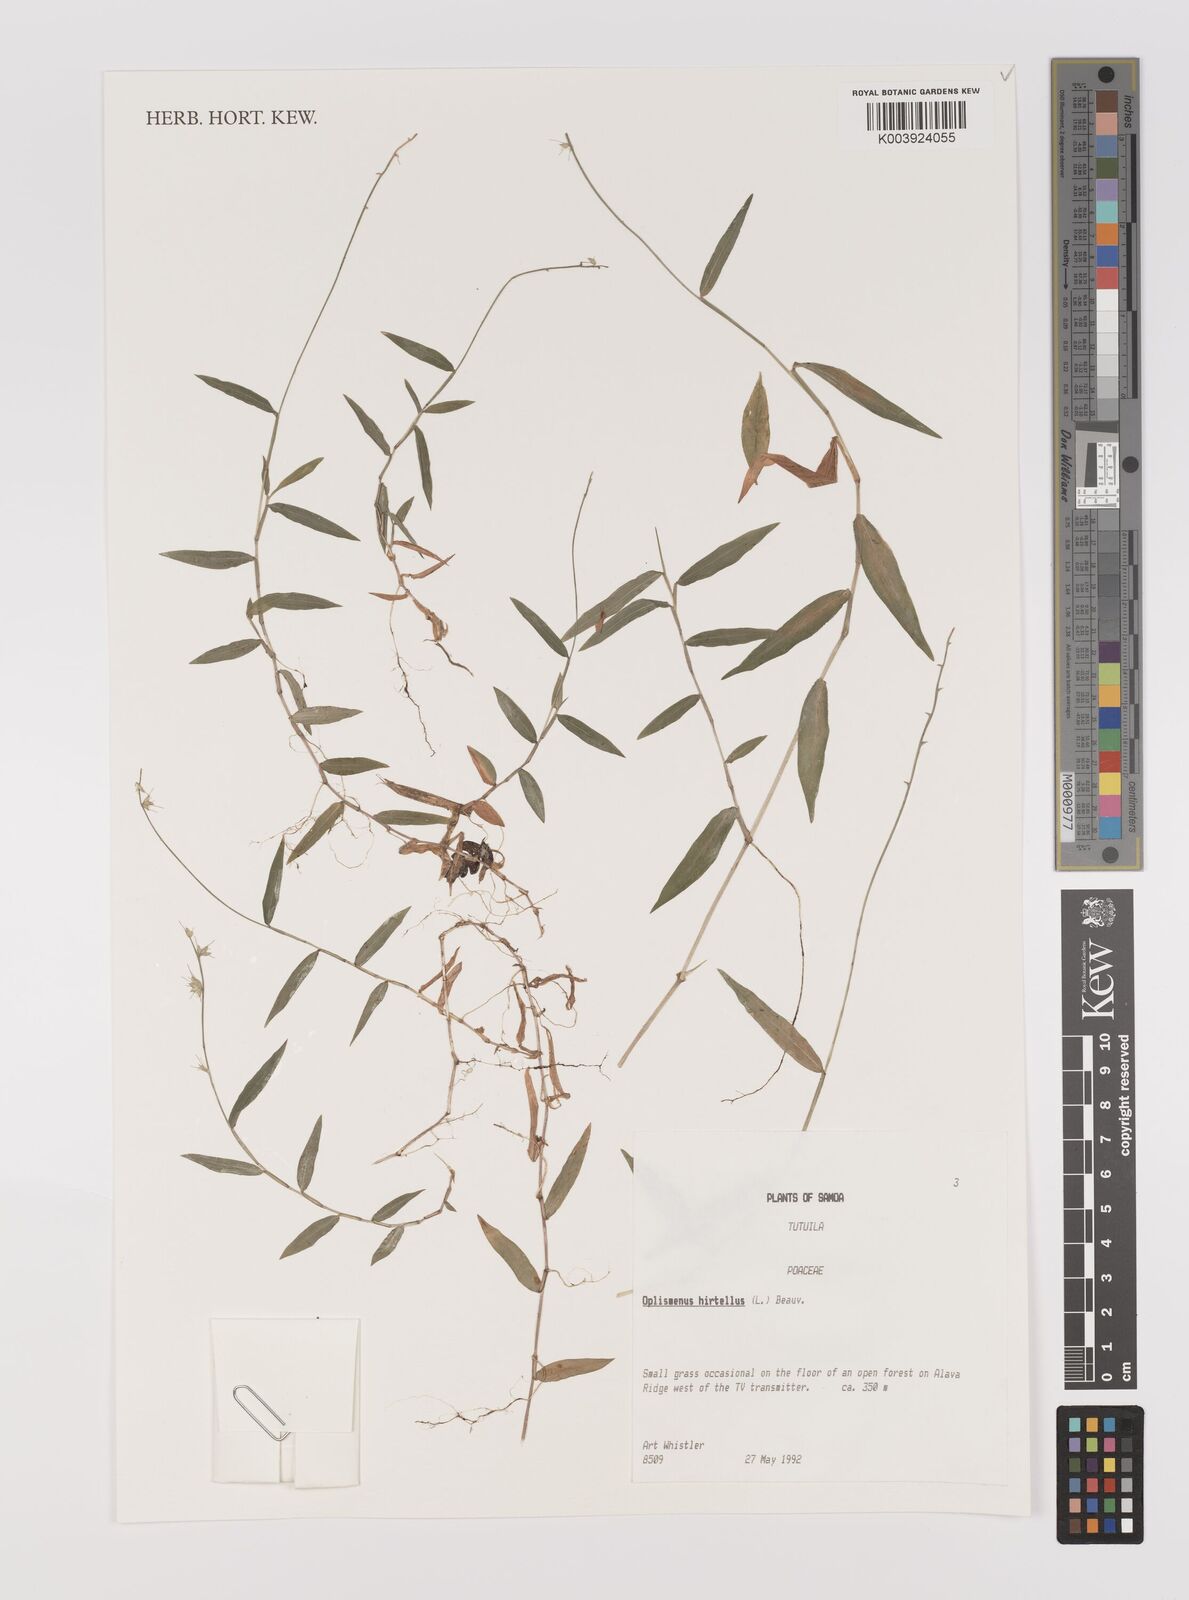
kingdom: Plantae
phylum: Tracheophyta
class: Liliopsida
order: Poales
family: Poaceae
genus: Oplismenus
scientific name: Oplismenus hirtellus
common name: Basketgrass
